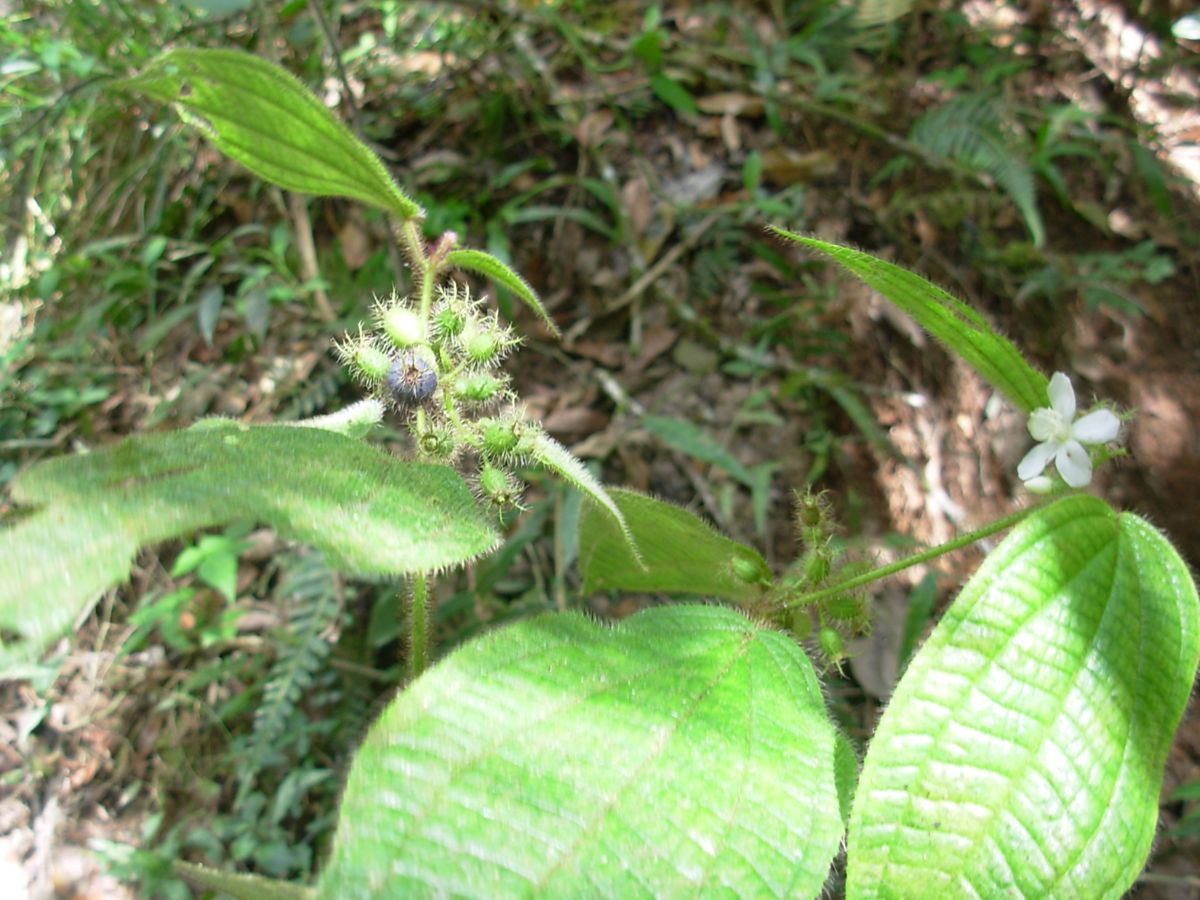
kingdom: Plantae
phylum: Tracheophyta
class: Magnoliopsida
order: Myrtales
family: Melastomataceae
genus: Miconia
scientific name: Miconia
